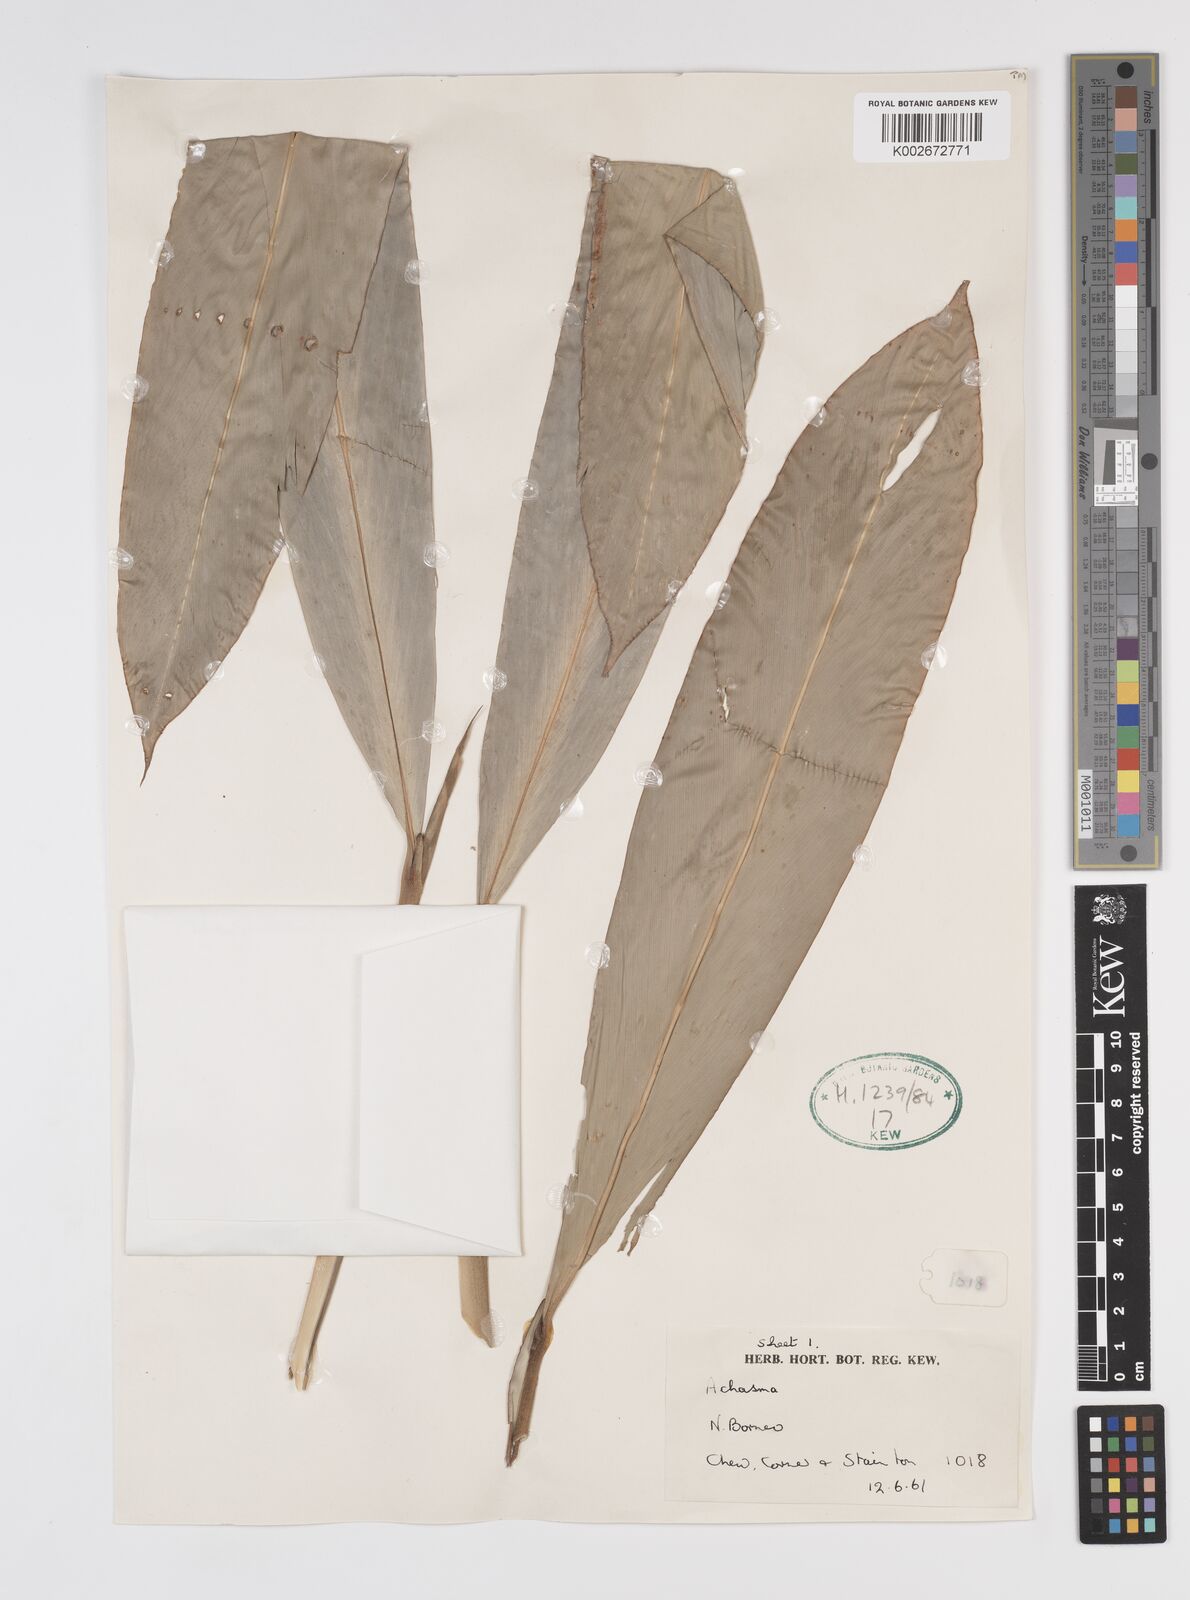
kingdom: Plantae
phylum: Tracheophyta
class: Liliopsida
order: Zingiberales
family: Zingiberaceae
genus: Etlingera
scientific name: Etlingera punicea
